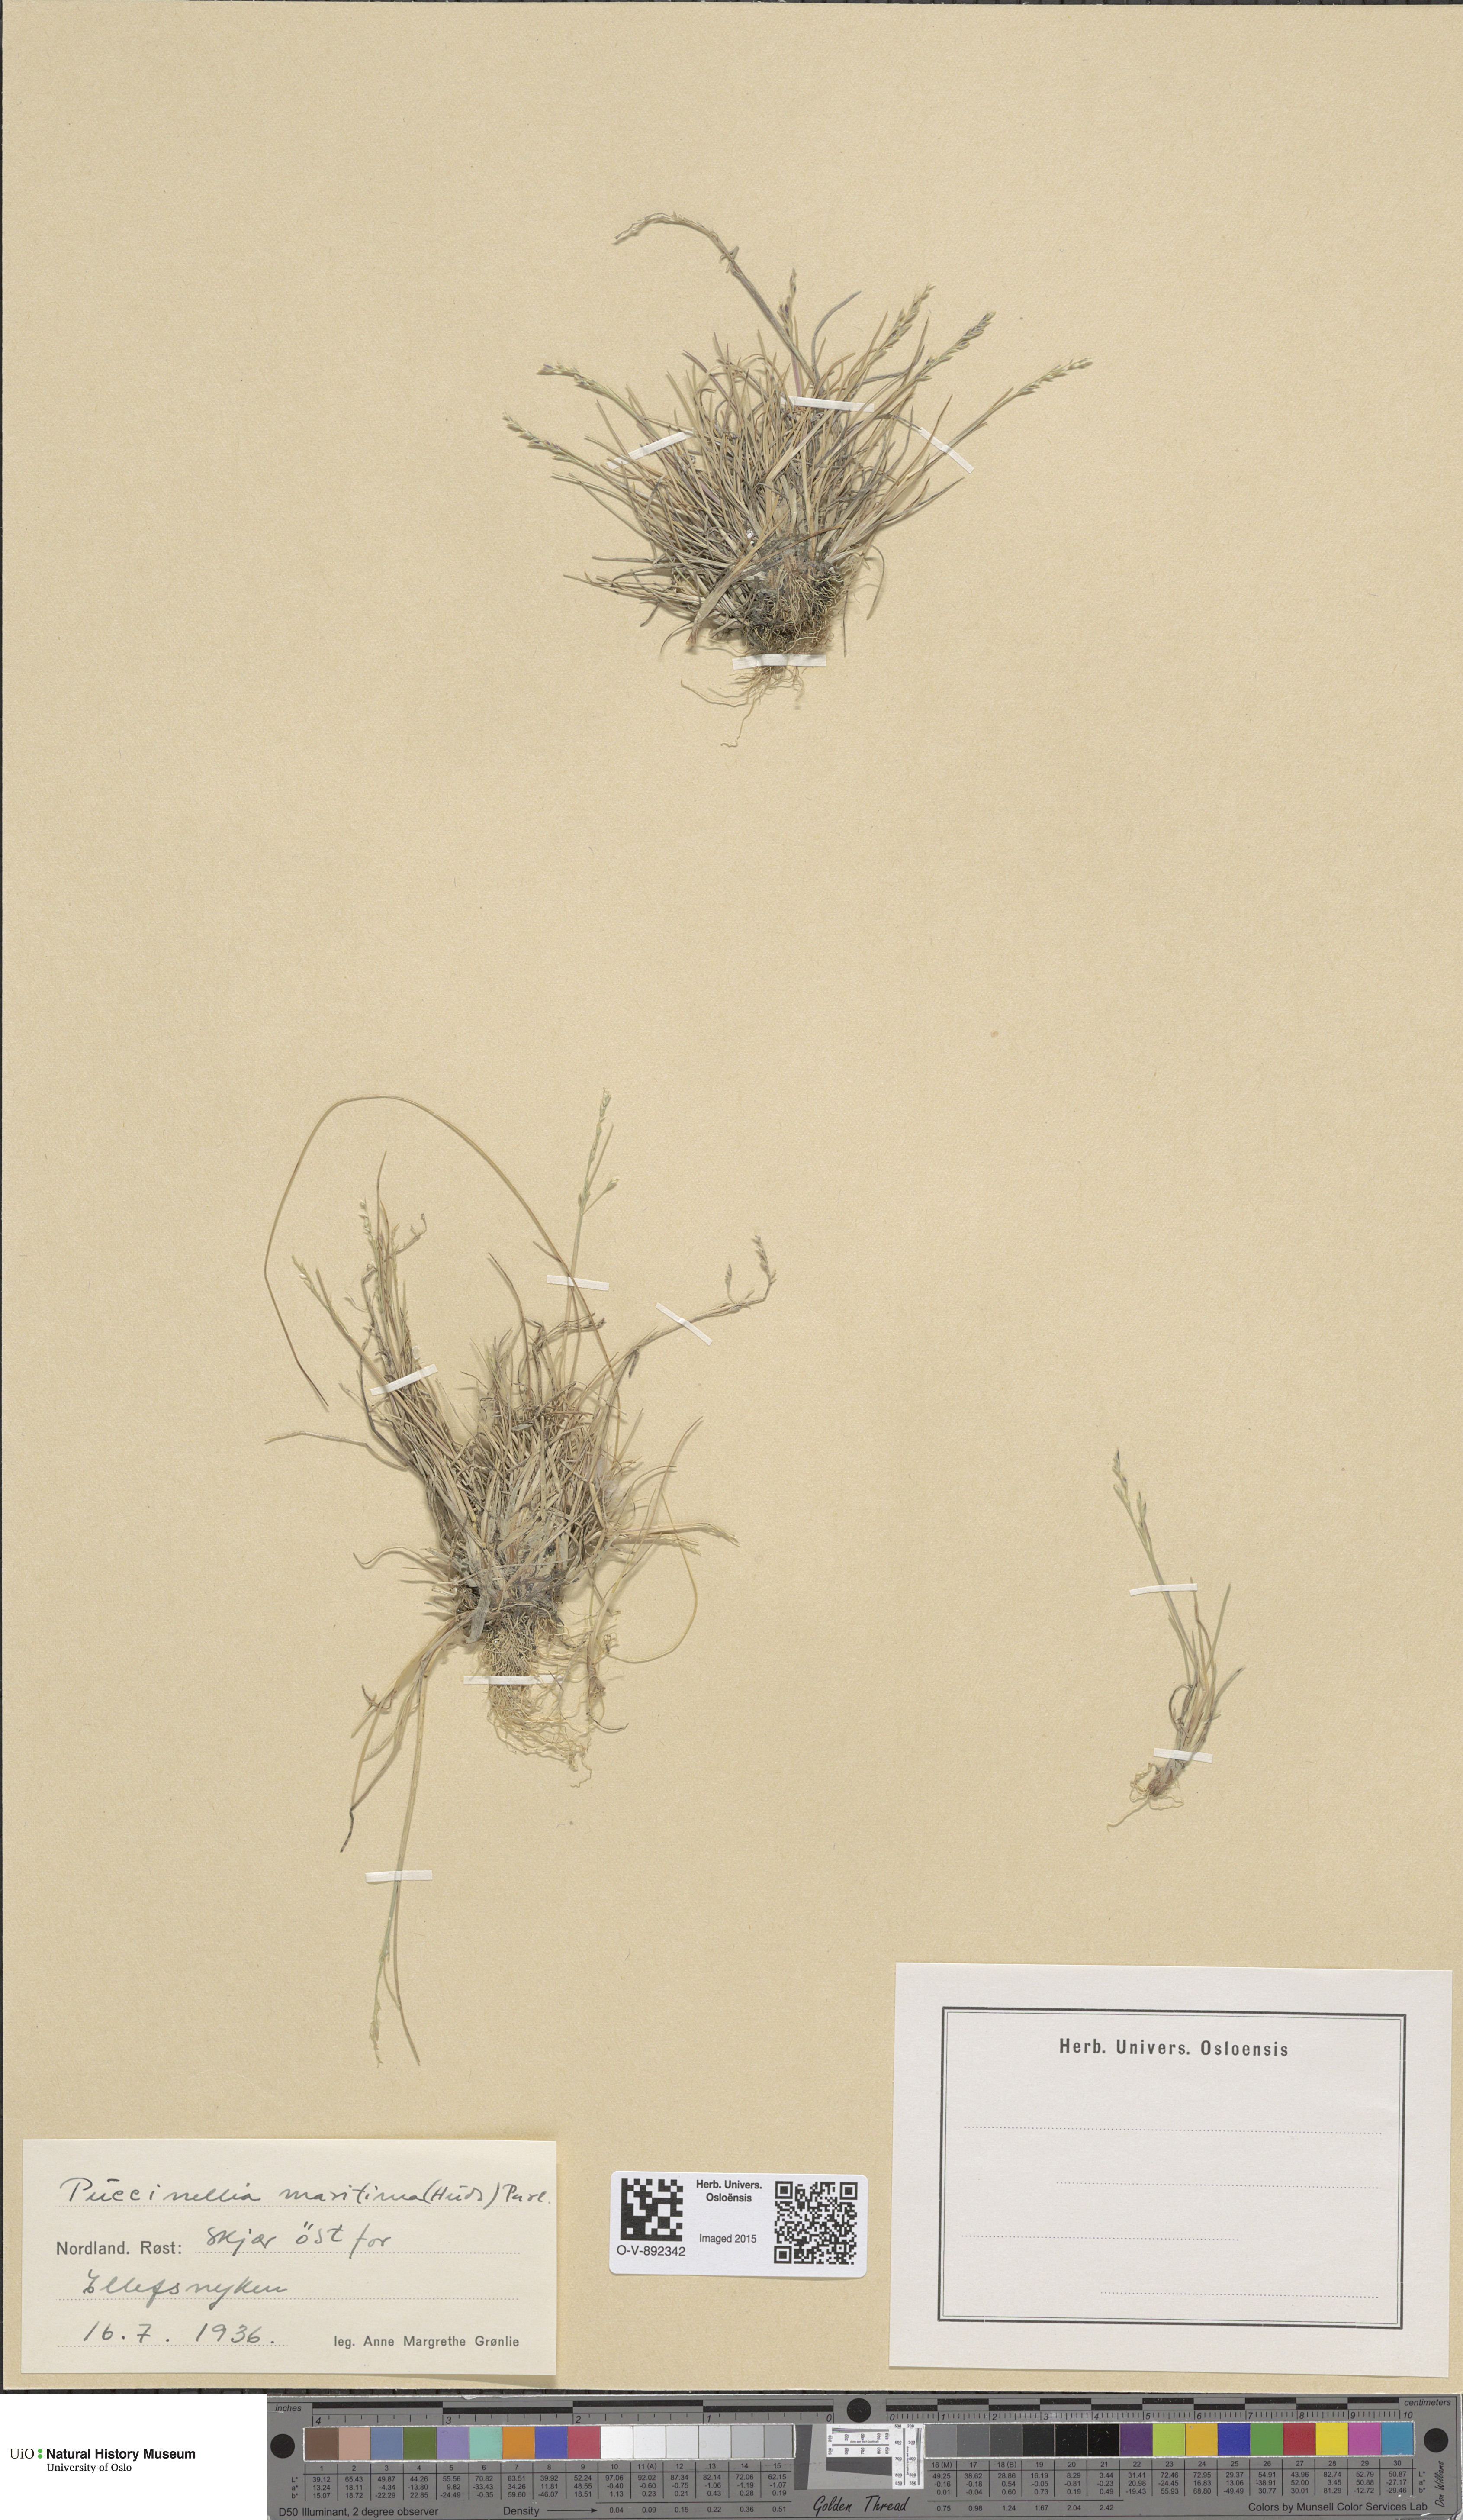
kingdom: Plantae
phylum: Tracheophyta
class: Liliopsida
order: Poales
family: Poaceae
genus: Puccinellia
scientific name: Puccinellia maritima
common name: Common saltmarsh grass
